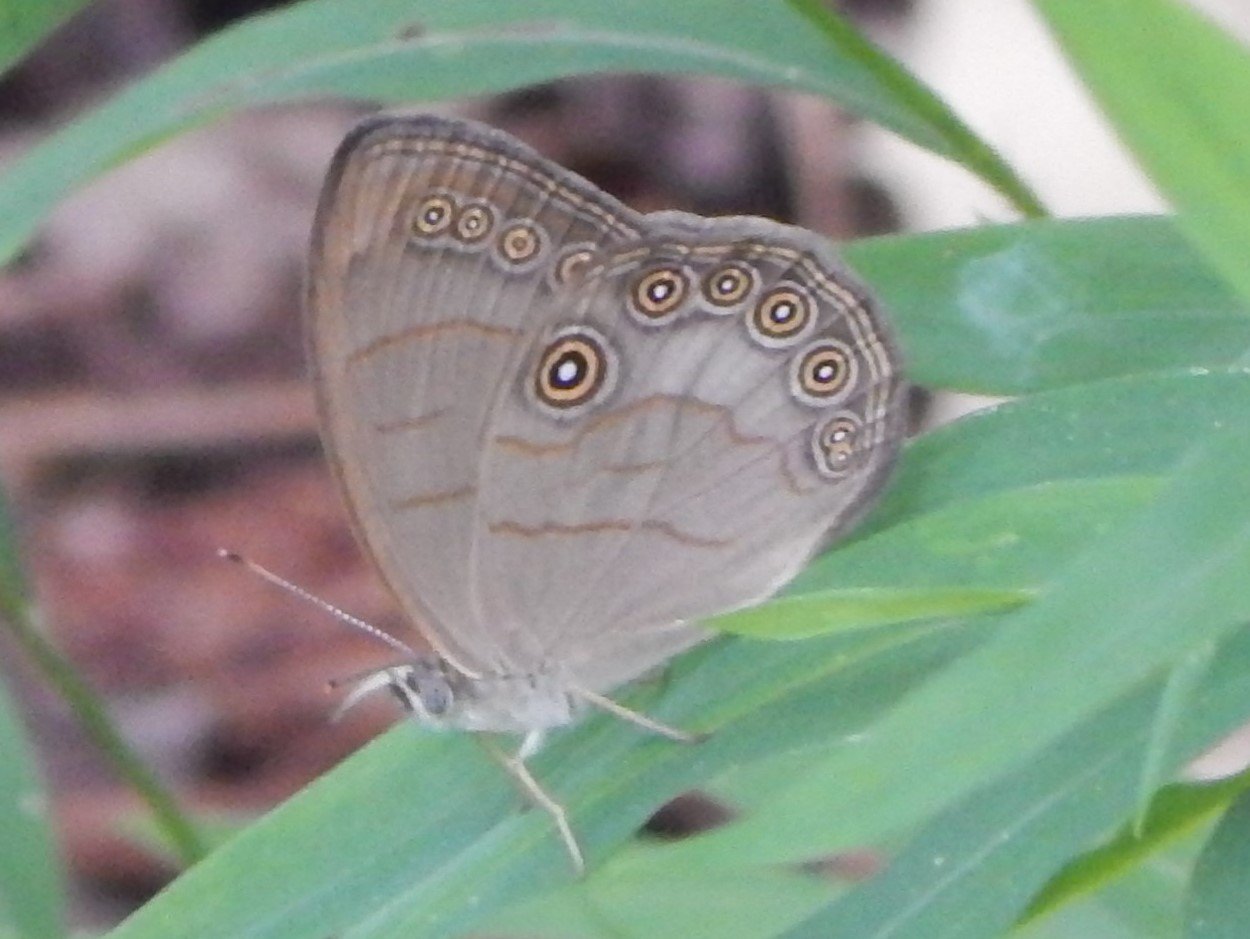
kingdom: Animalia
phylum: Arthropoda
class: Insecta
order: Lepidoptera
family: Nymphalidae
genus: Lethe
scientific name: Lethe eurydice
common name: Appalachian Eyed Brown
